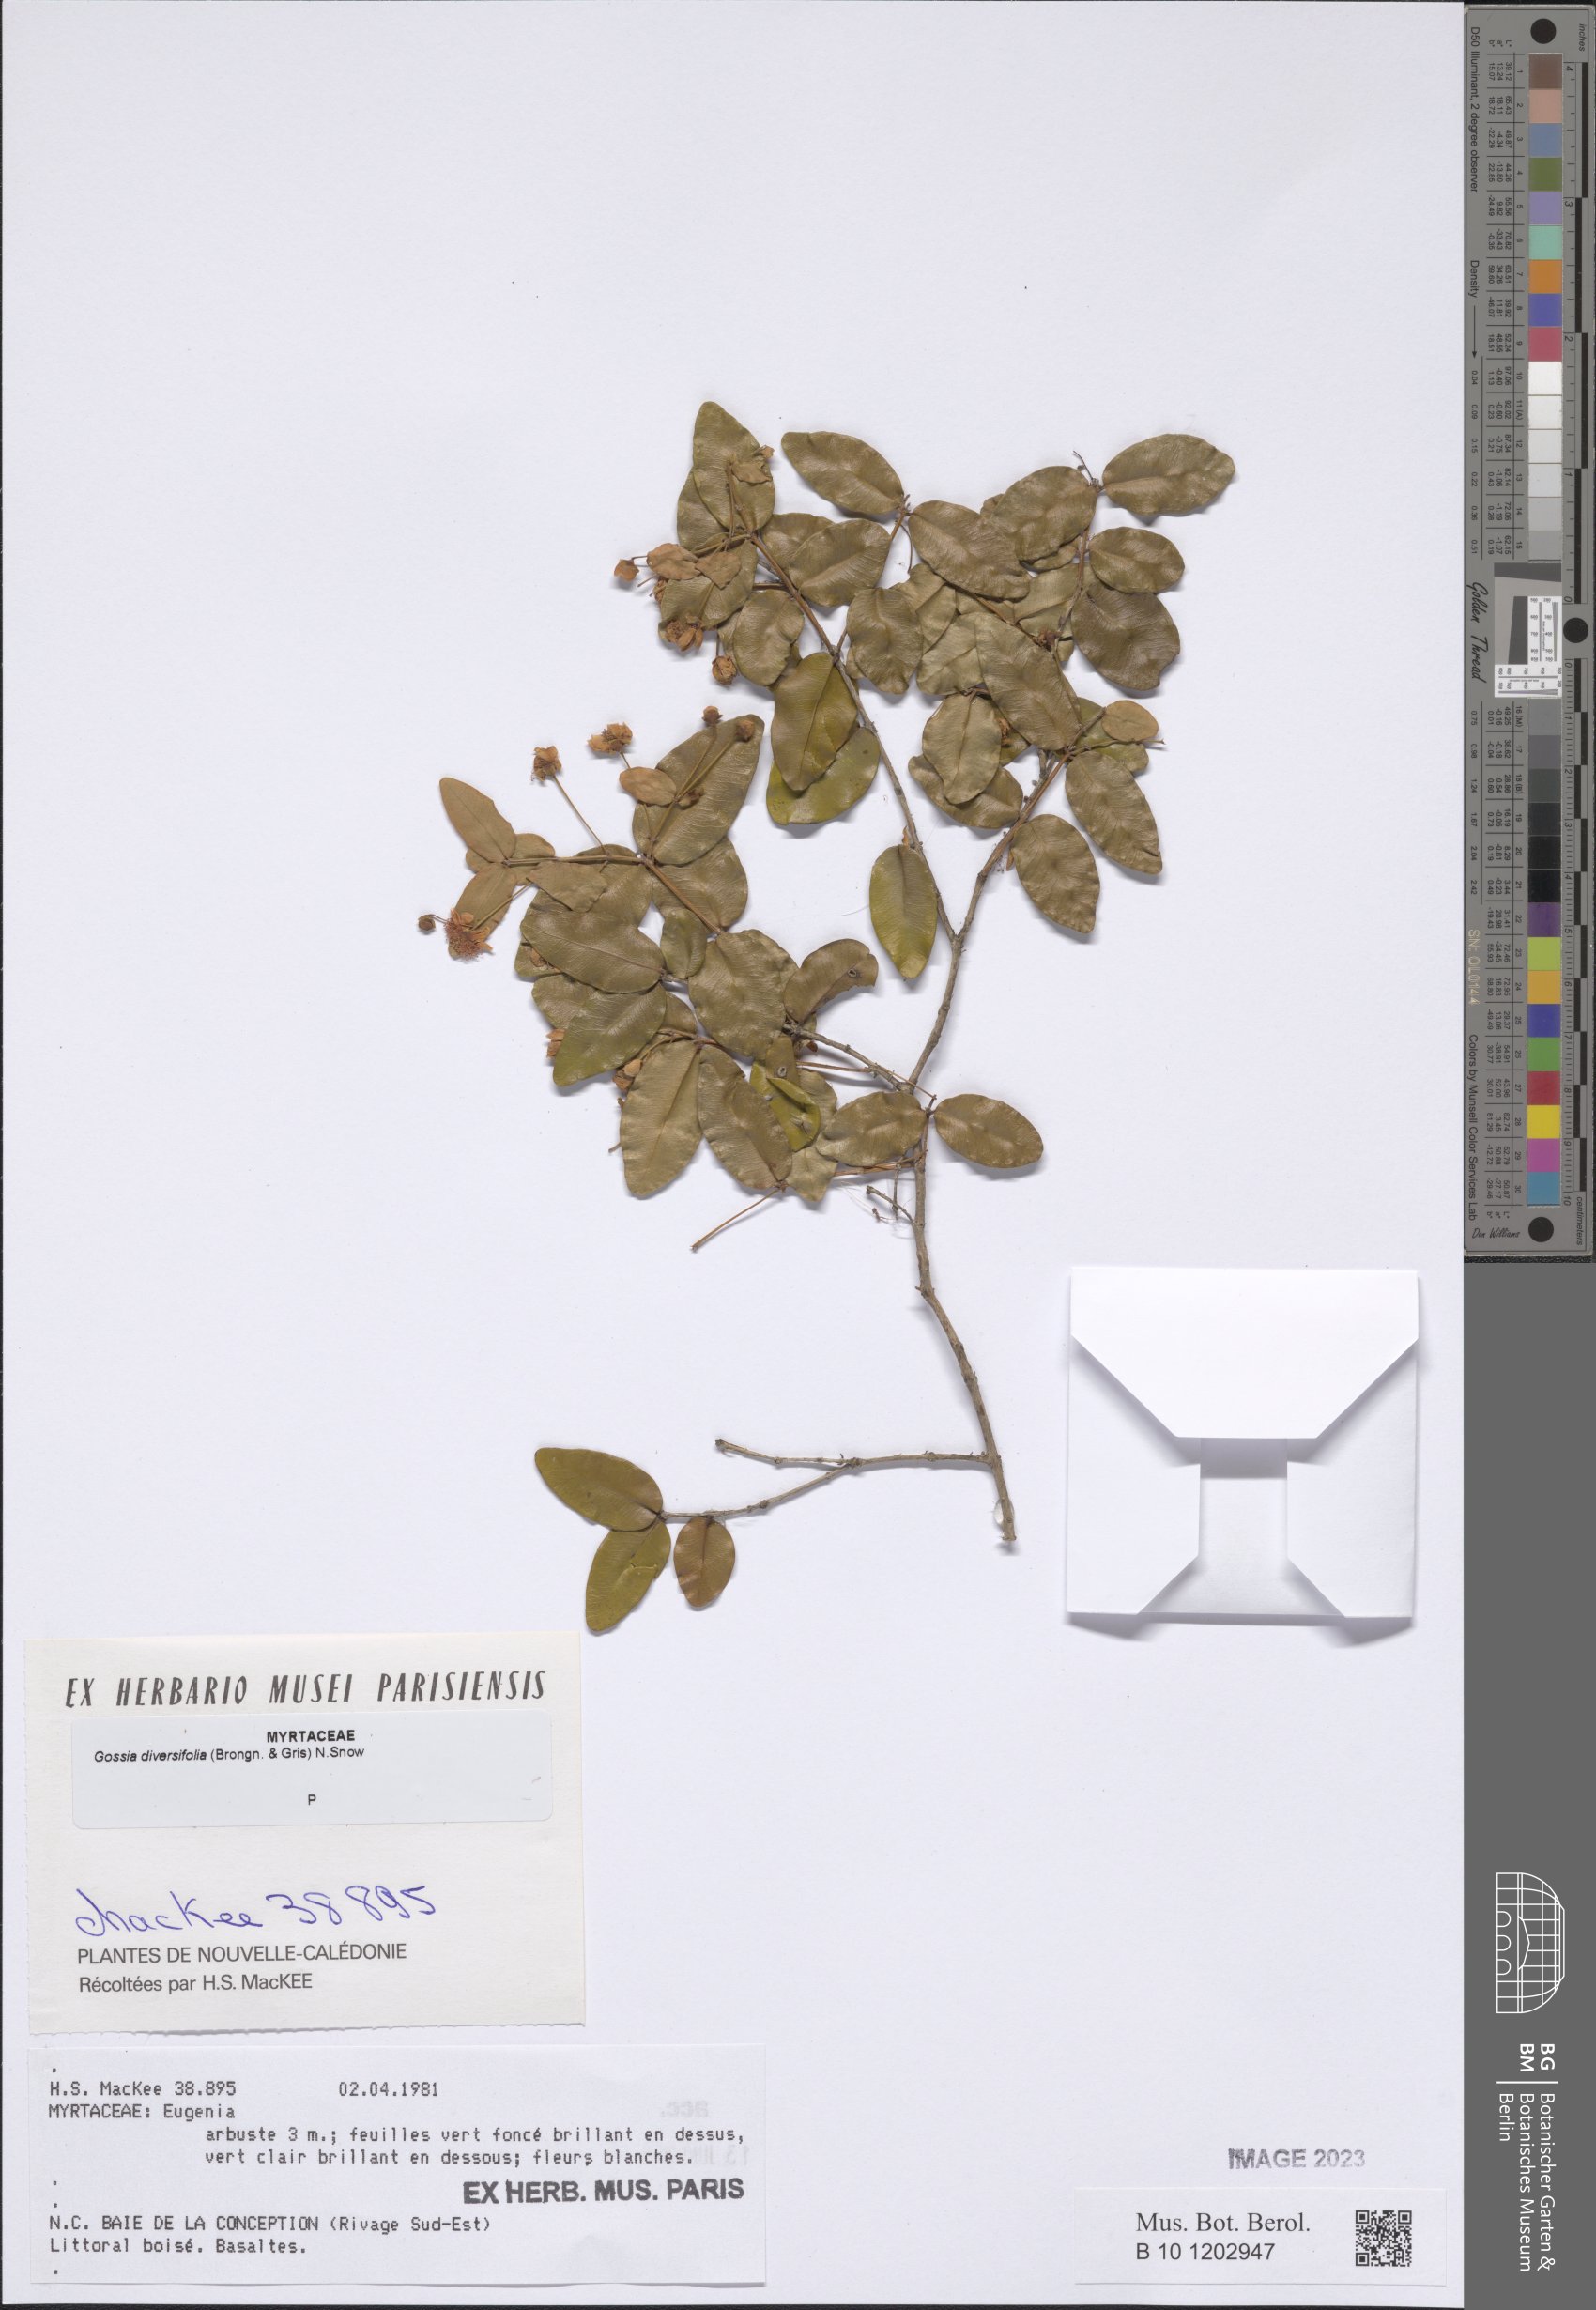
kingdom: Plantae
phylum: Tracheophyta
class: Magnoliopsida
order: Myrtales
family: Myrtaceae
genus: Gossia
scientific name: Gossia diversifolia
